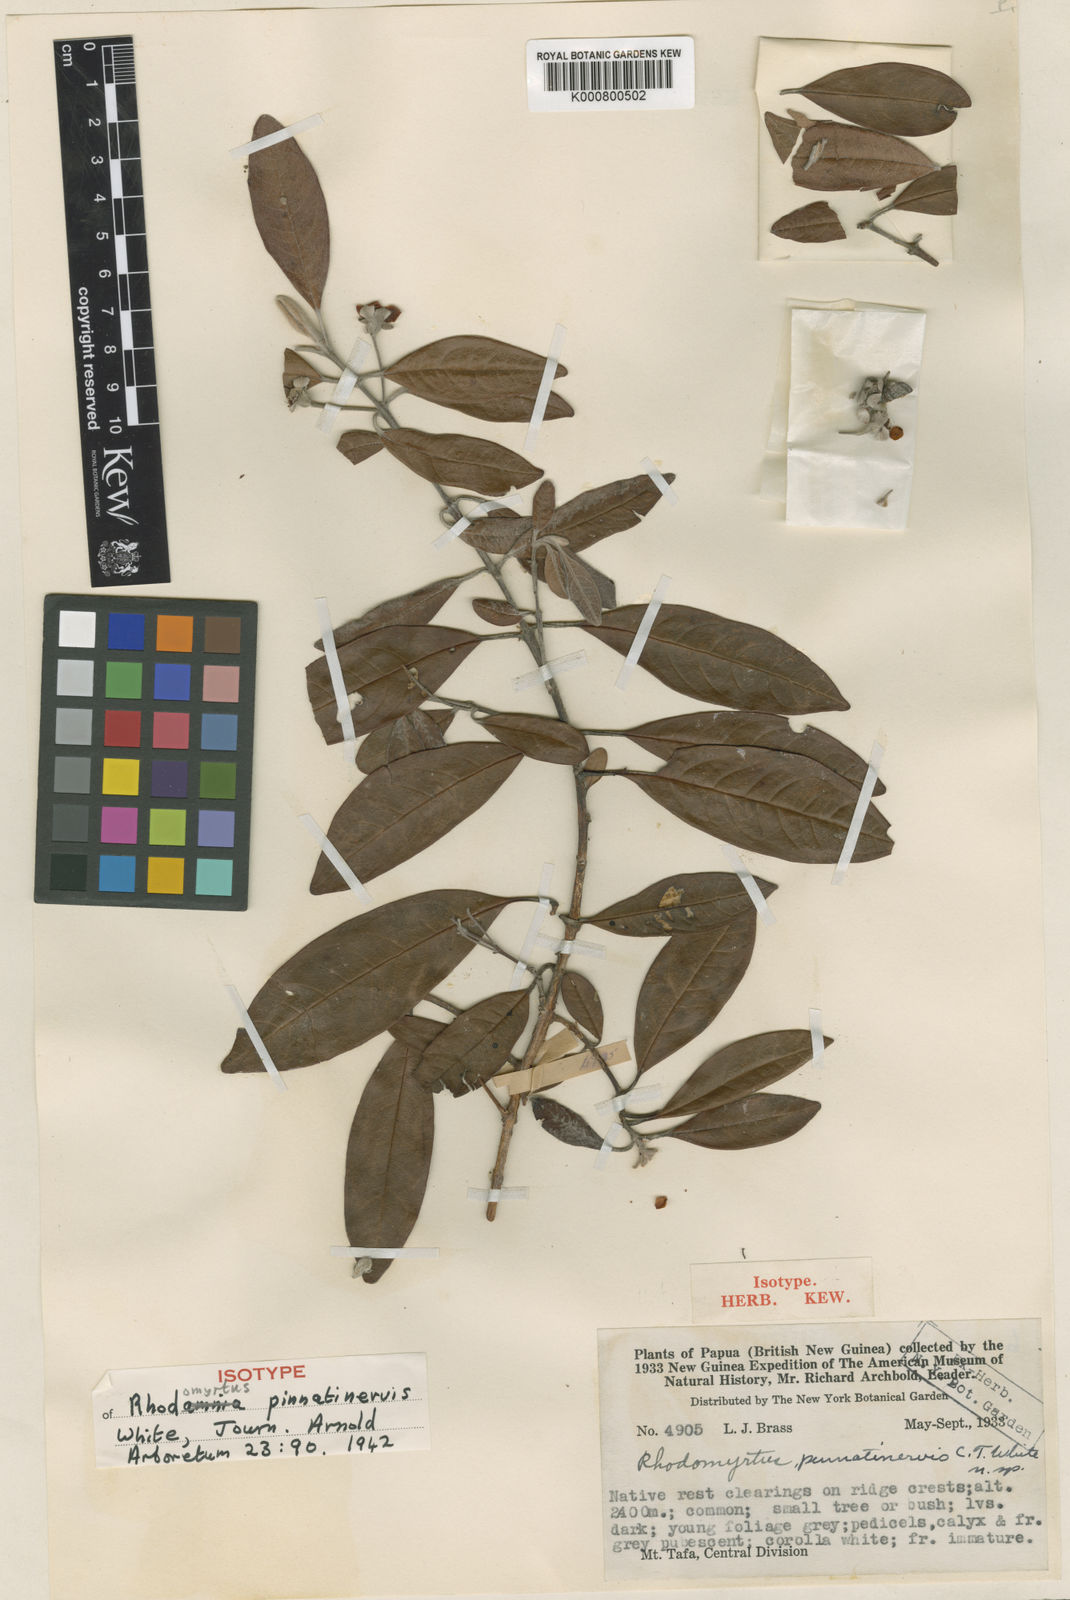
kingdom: Plantae
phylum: Tracheophyta
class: Magnoliopsida
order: Myrtales
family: Myrtaceae
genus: Rhodomyrtus
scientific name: Rhodomyrtus pinnatinervis
